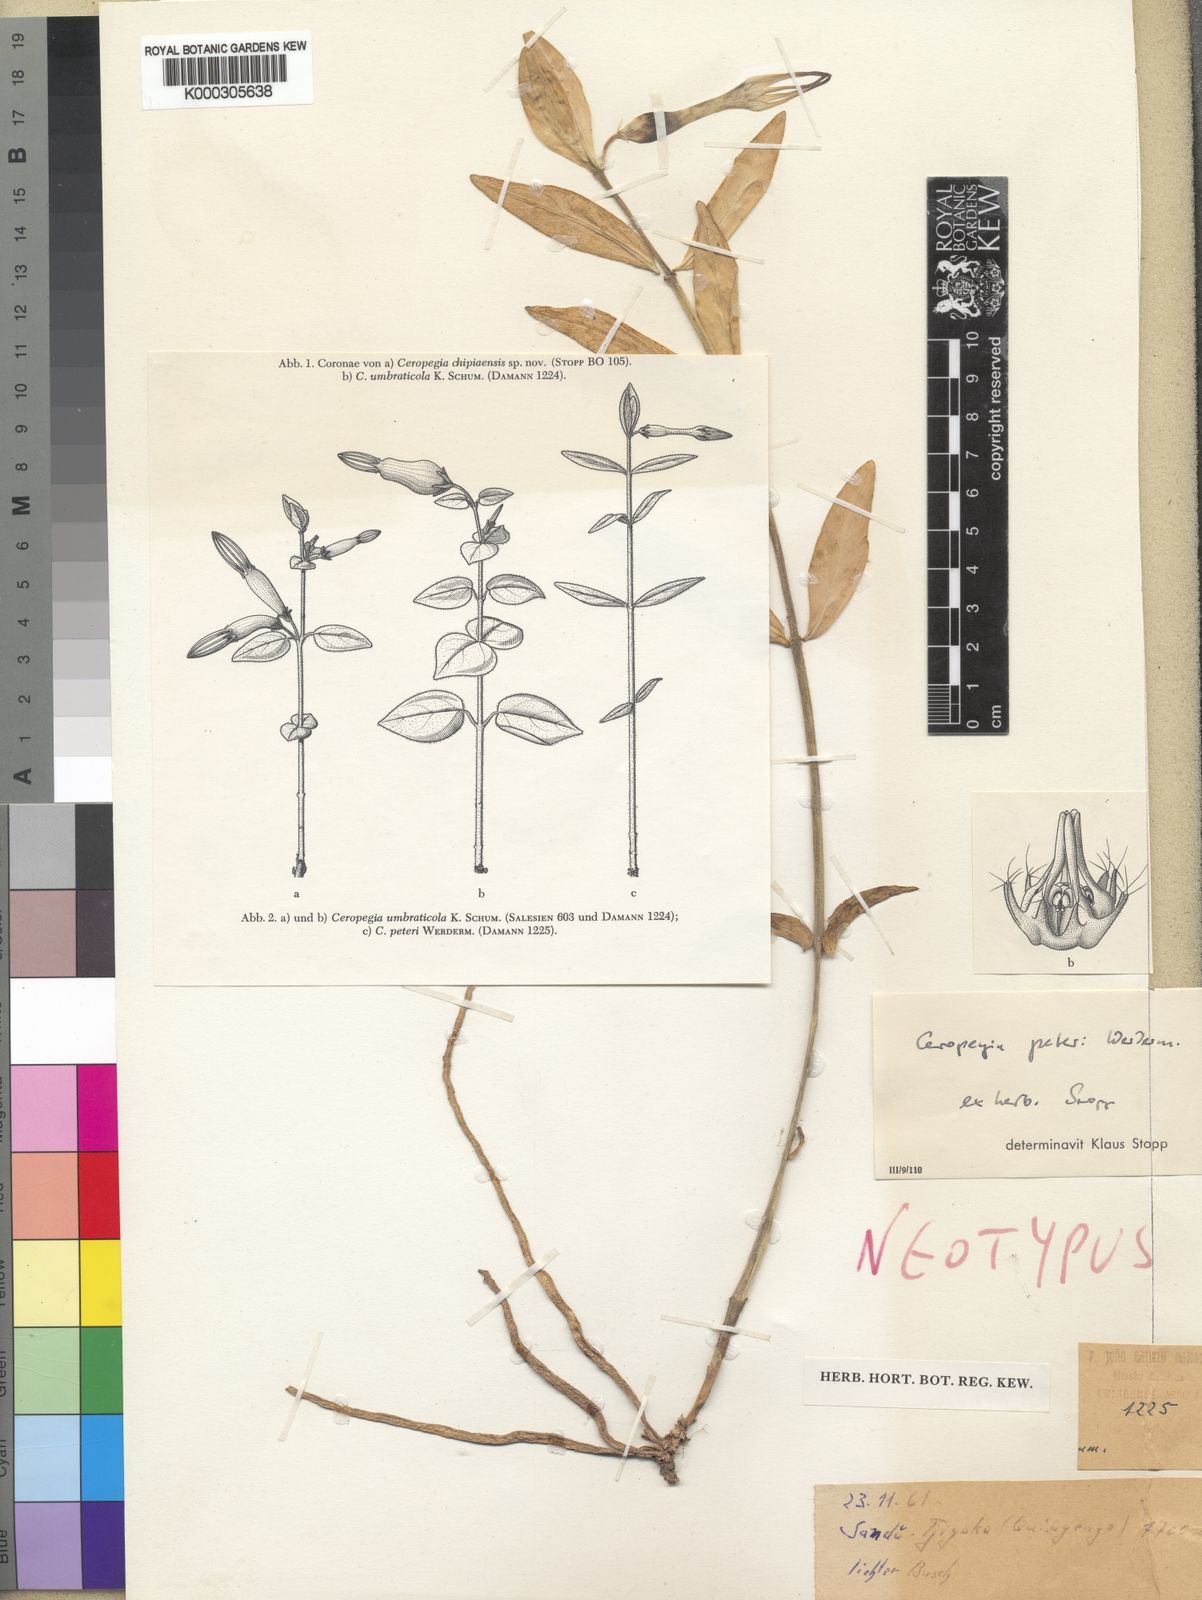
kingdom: Plantae
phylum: Tracheophyta
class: Magnoliopsida
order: Gentianales
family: Apocynaceae
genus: Ceropegia
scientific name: Ceropegia filipendula
